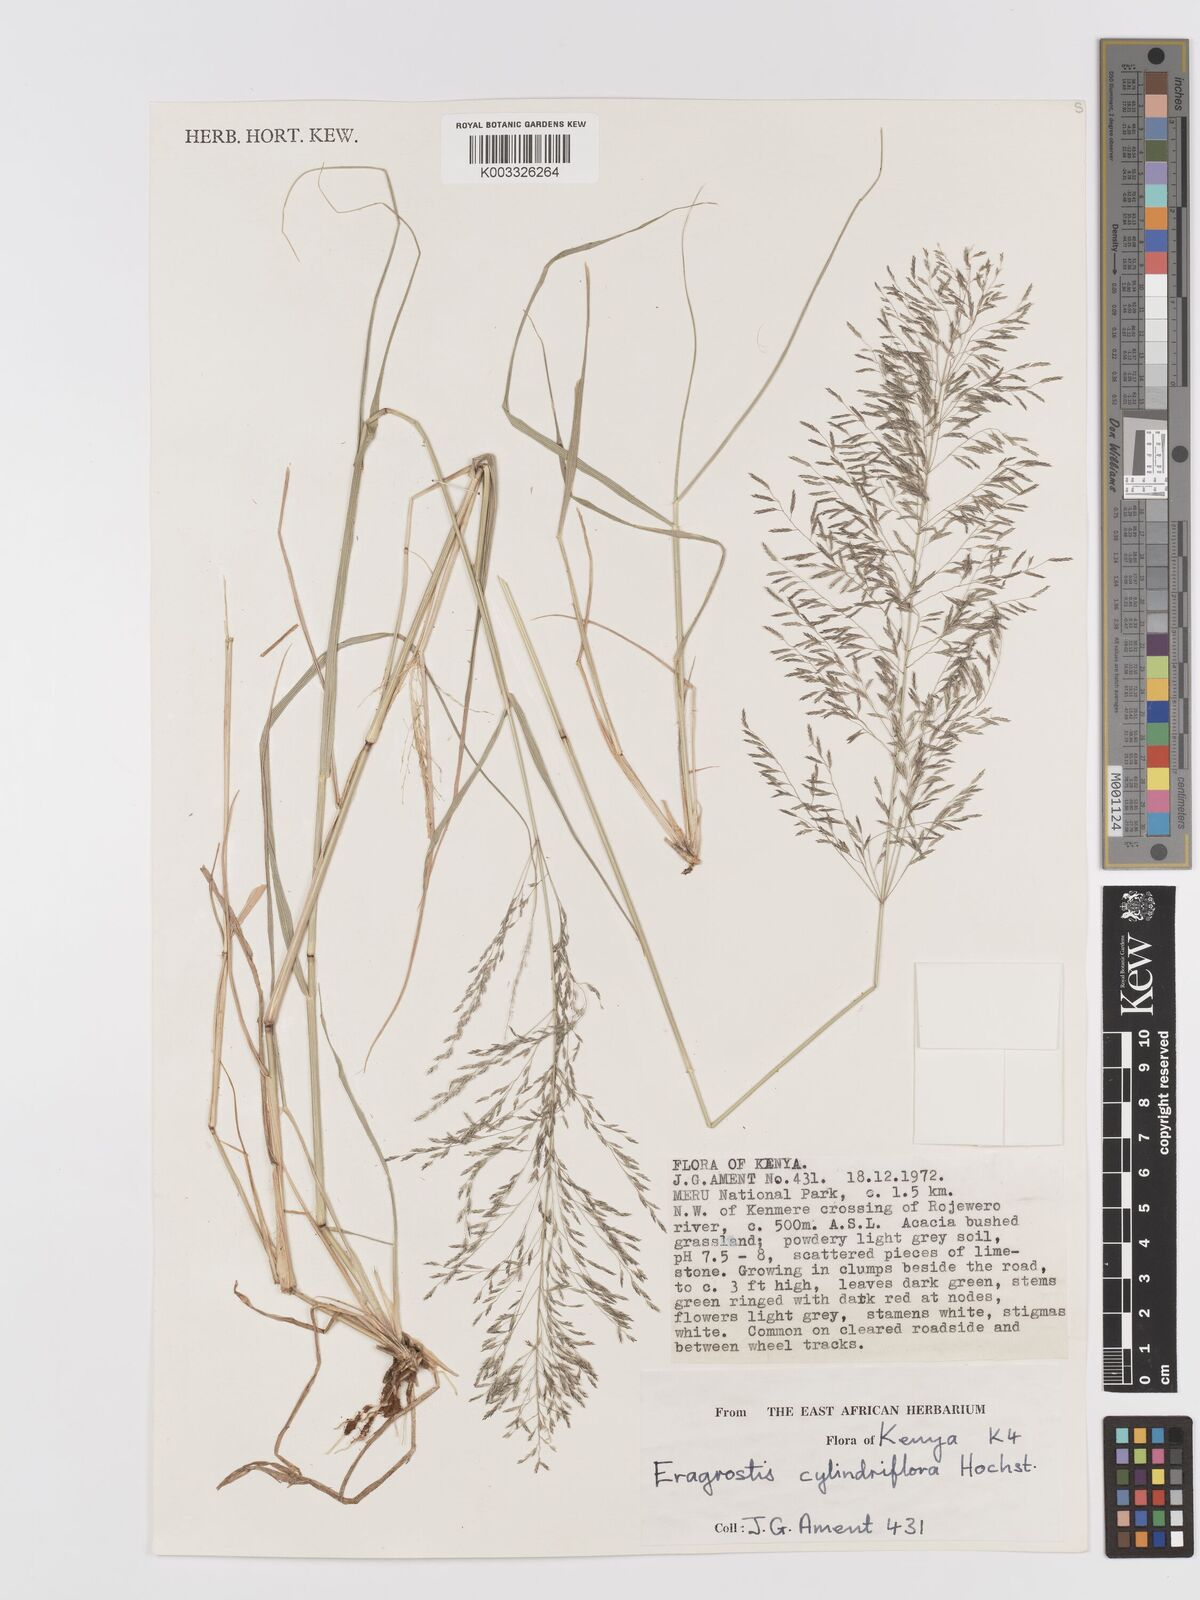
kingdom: Plantae
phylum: Tracheophyta
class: Liliopsida
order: Poales
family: Poaceae
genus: Eragrostis
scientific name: Eragrostis cylindriflora
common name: Cylinderflower lovegrass
